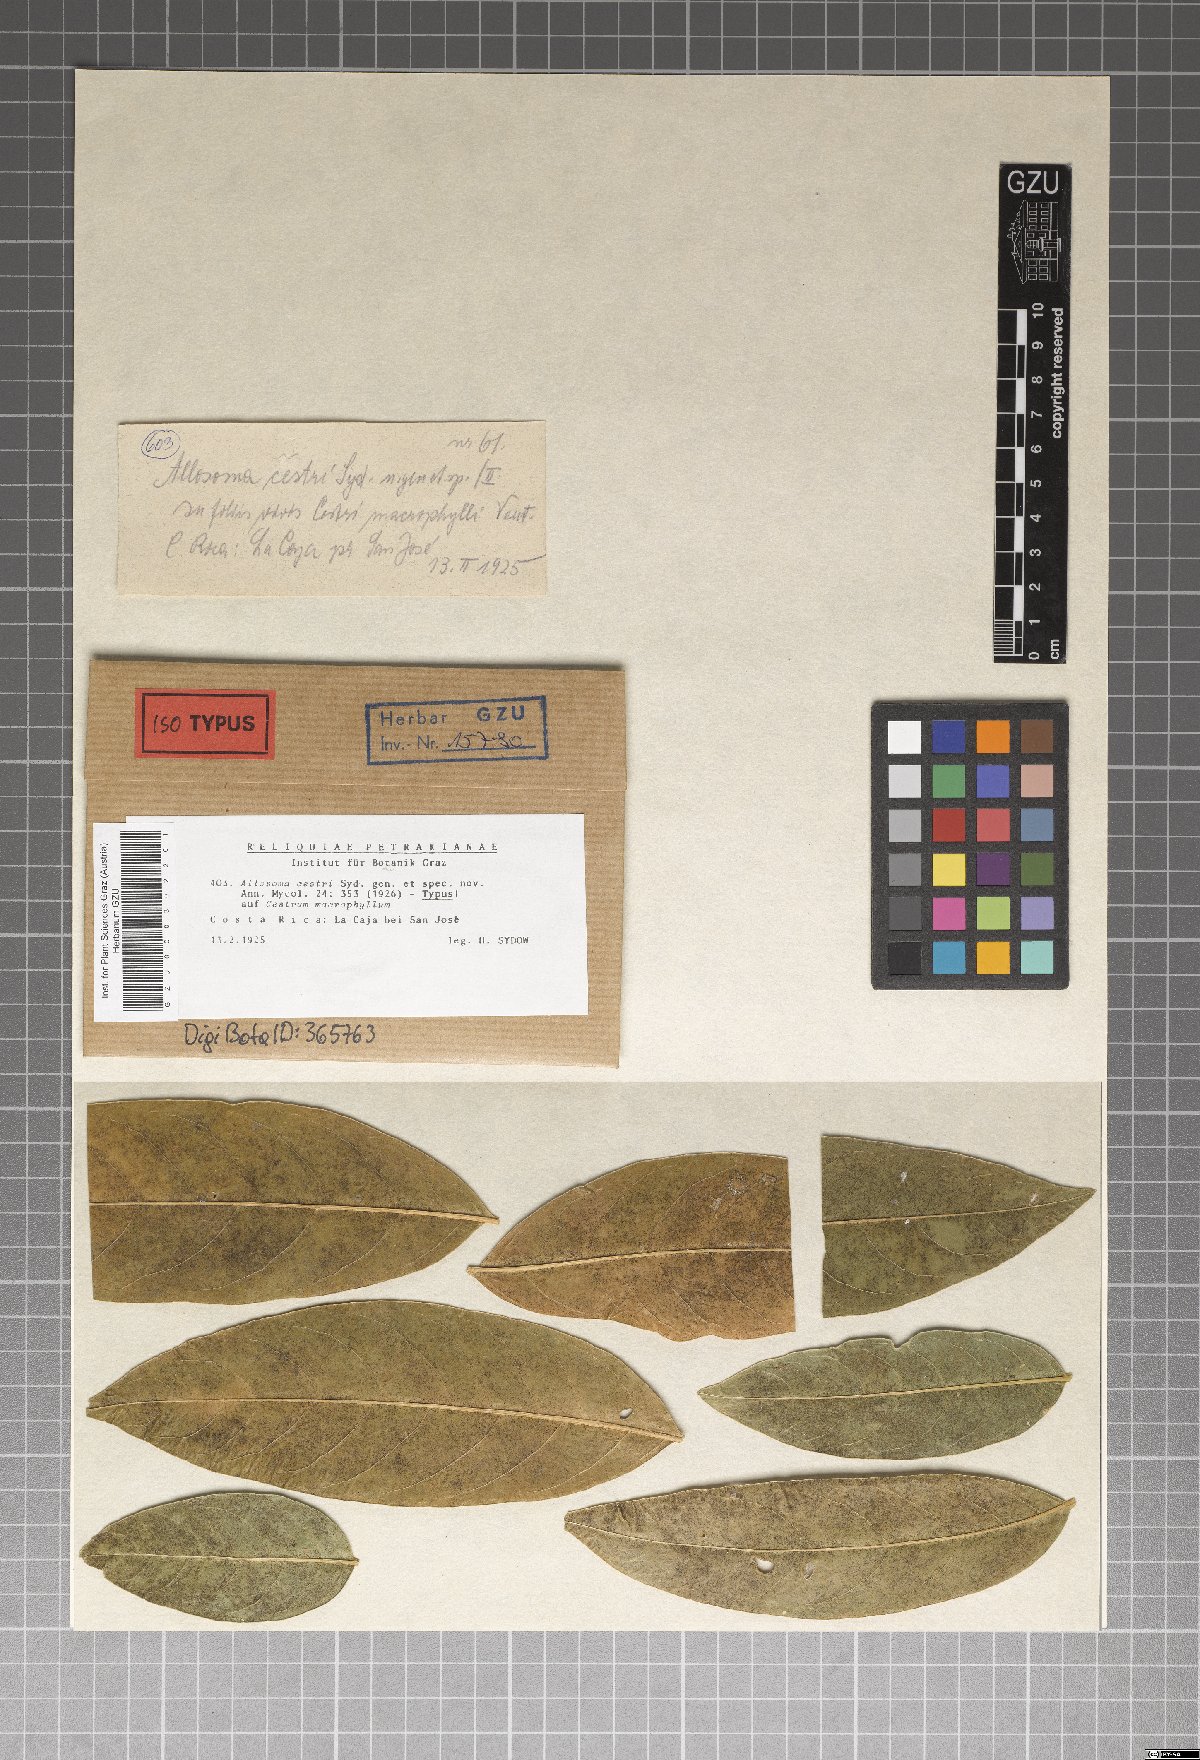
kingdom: Fungi
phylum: Ascomycota
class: Dothideomycetes
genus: Allosoma
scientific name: Allosoma cestri
